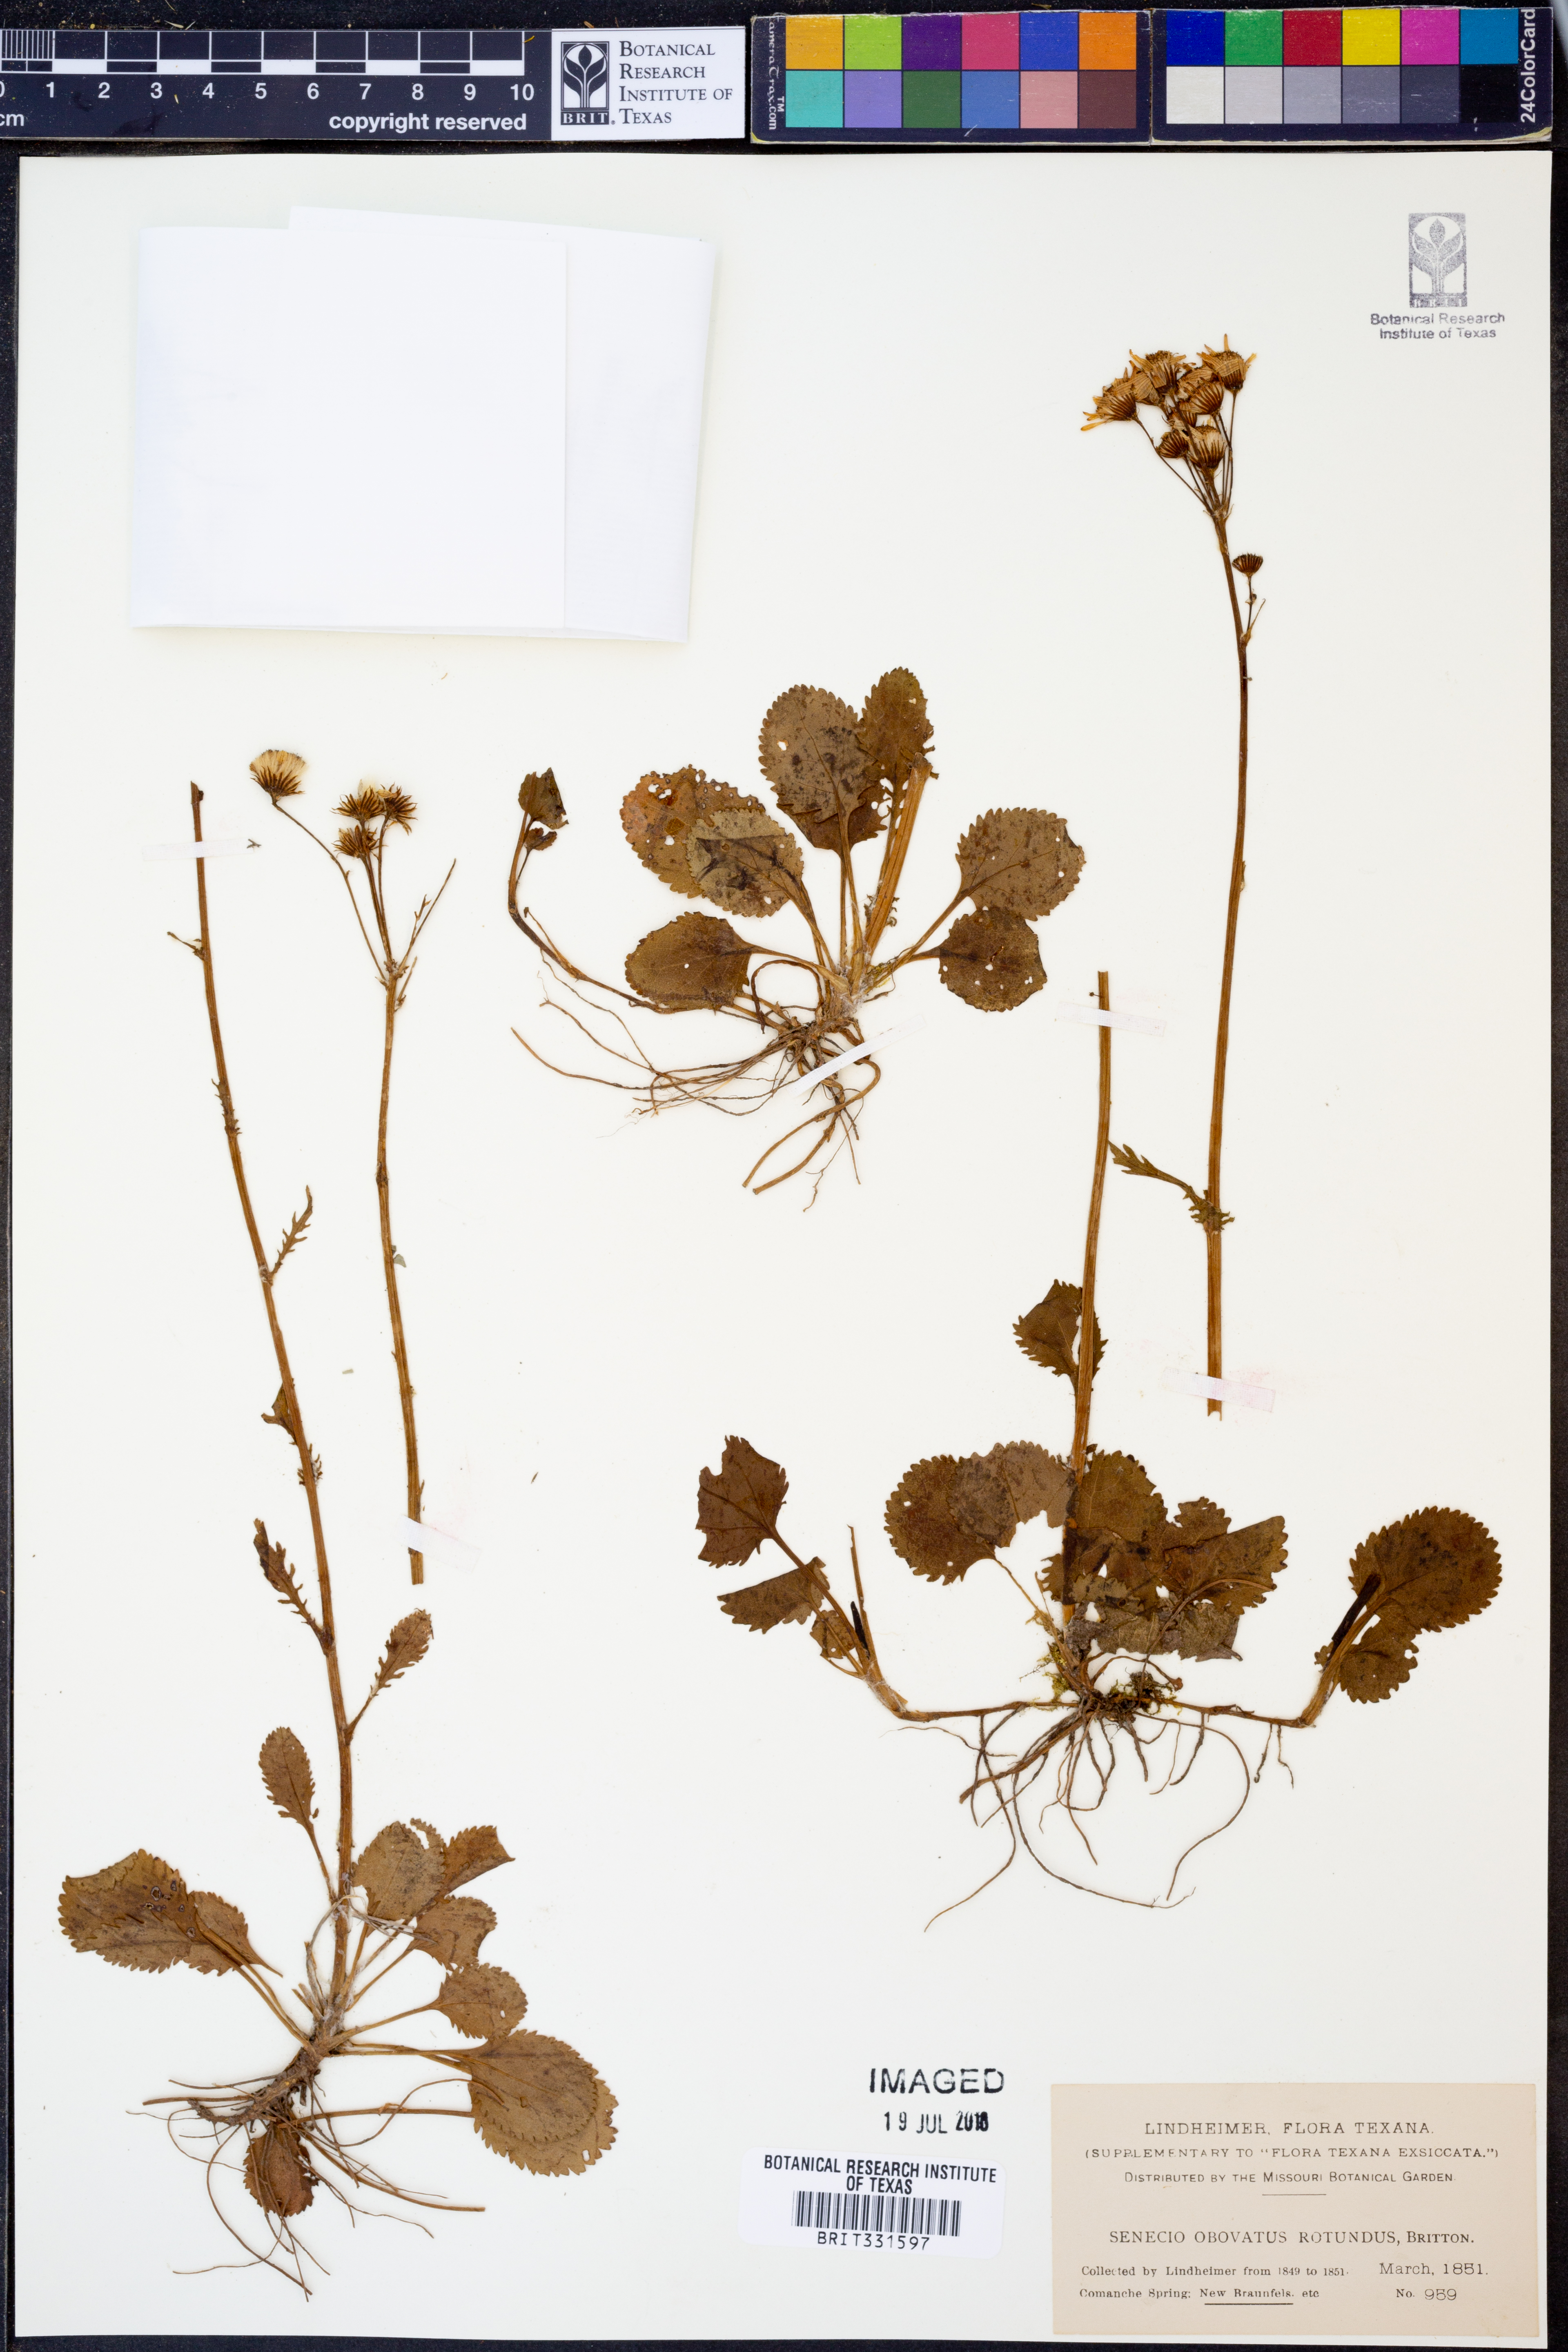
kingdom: Plantae
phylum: Tracheophyta
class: Magnoliopsida
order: Asterales
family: Asteraceae
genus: Packera
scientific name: Packera obovata
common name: Round-leaf ragwort
